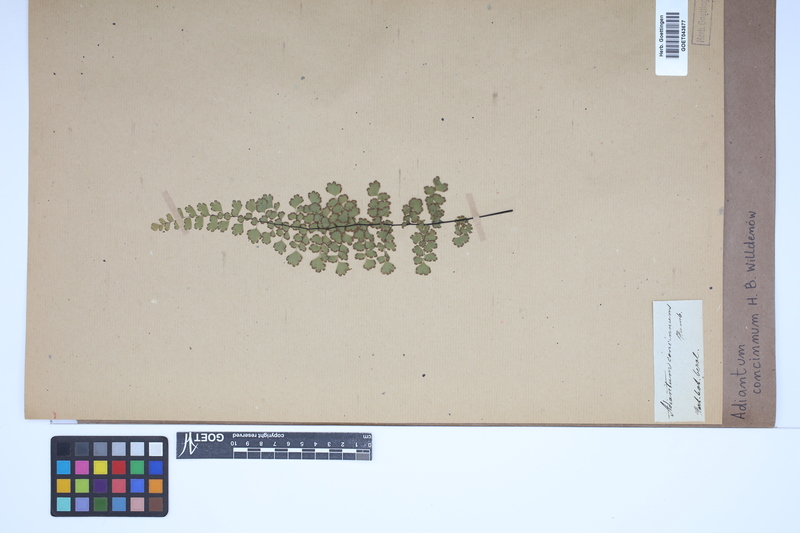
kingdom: Plantae
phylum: Tracheophyta
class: Polypodiopsida
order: Polypodiales
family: Pteridaceae
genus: Adiantum
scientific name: Adiantum concinnum
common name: Brittle maidenhair fern
